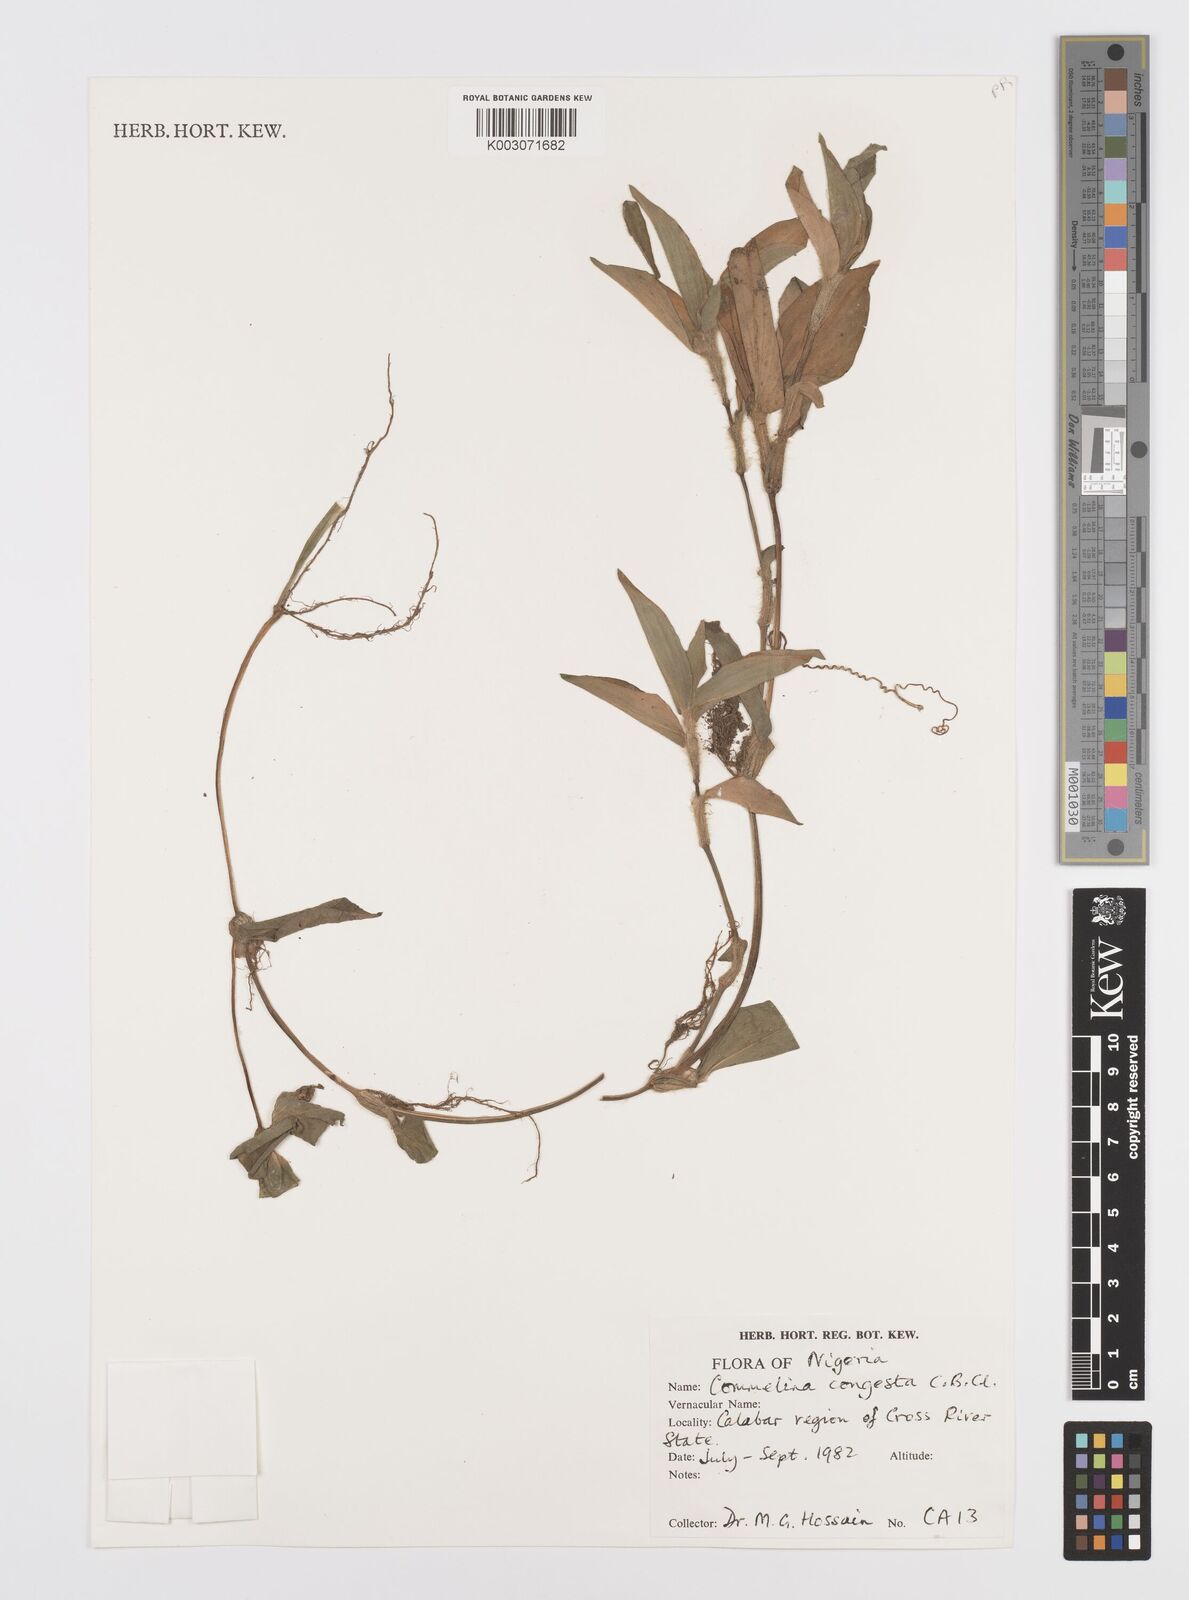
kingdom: Plantae
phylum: Tracheophyta
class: Liliopsida
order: Commelinales
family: Commelinaceae
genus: Commelina
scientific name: Commelina congesta
